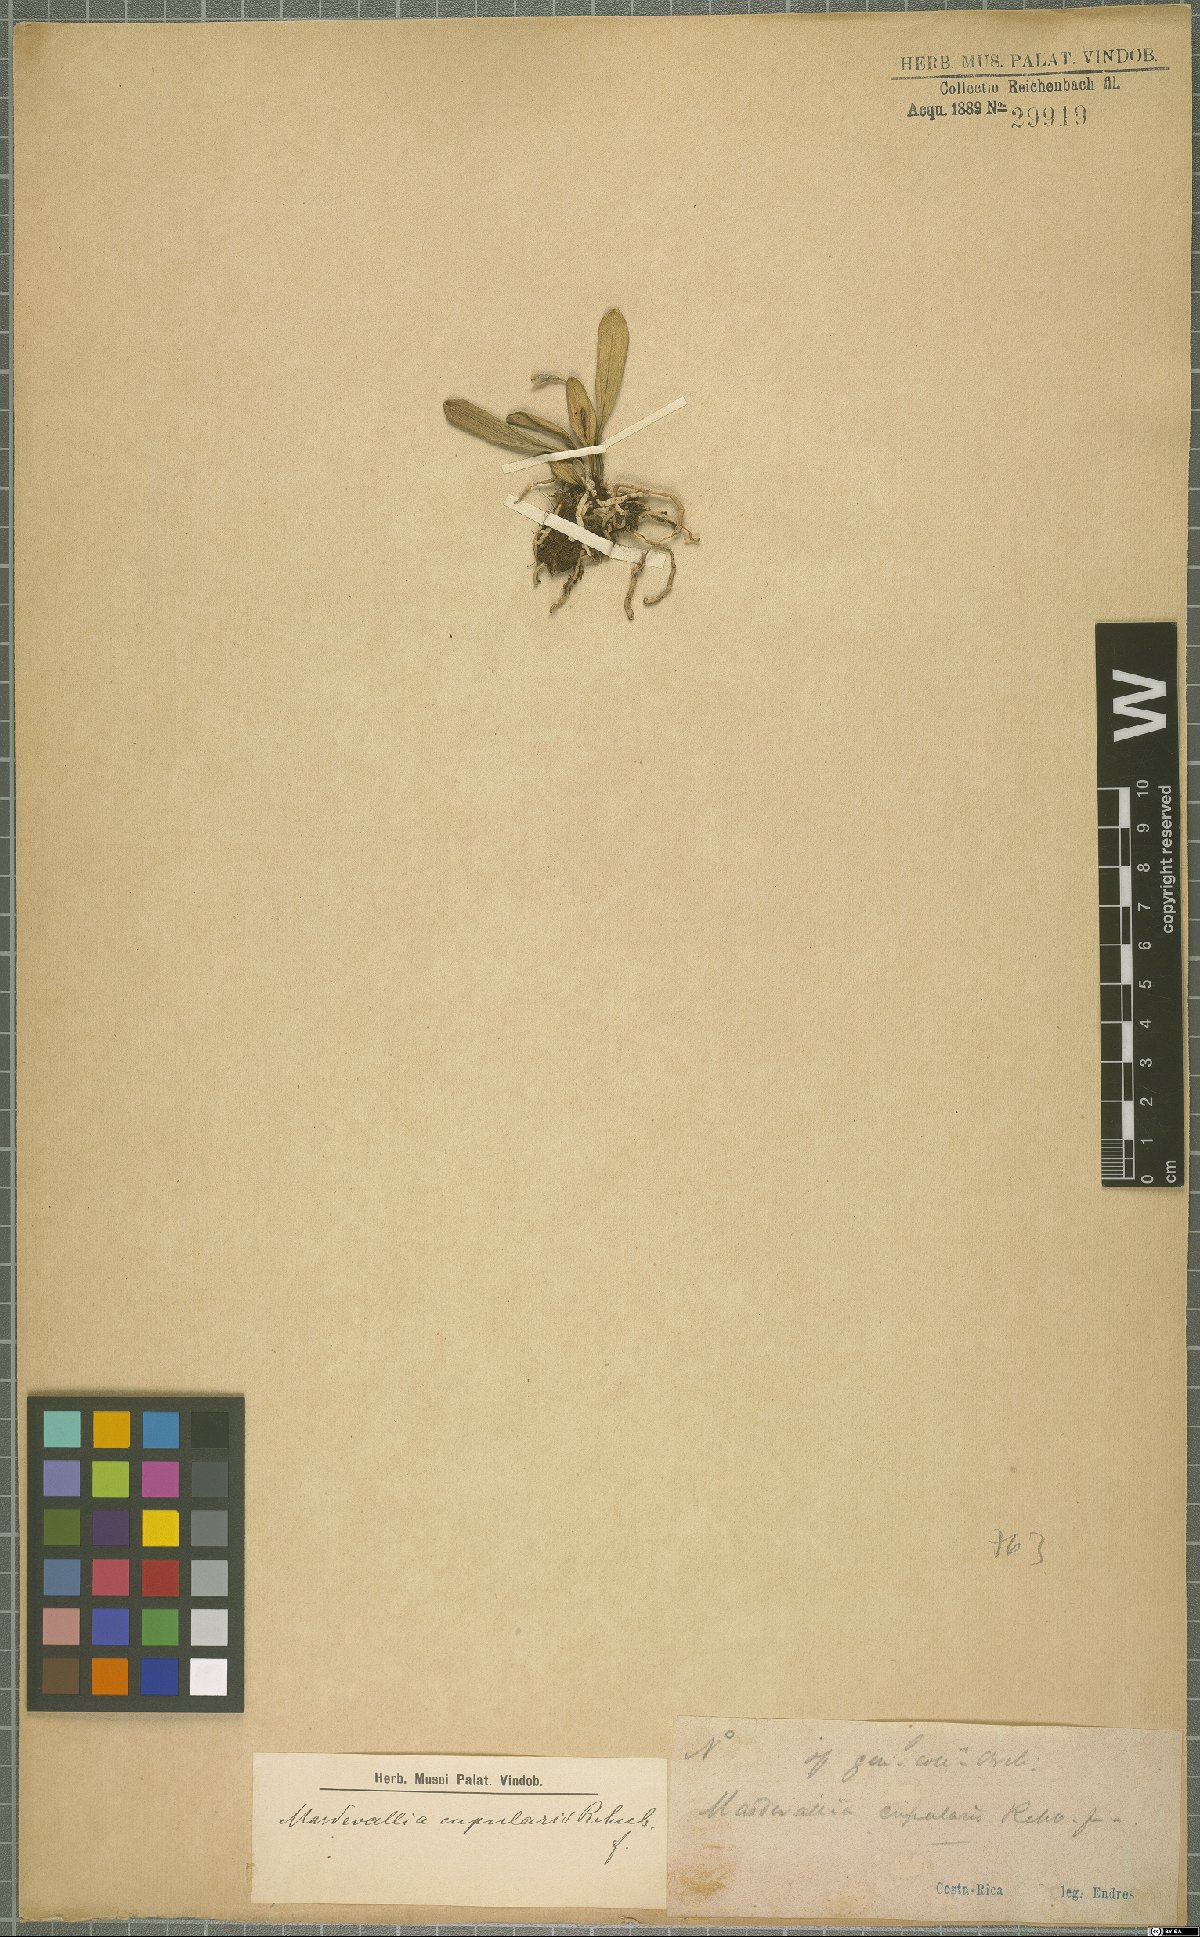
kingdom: Plantae
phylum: Tracheophyta
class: Liliopsida
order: Asparagales
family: Orchidaceae
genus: Masdevallia
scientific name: Masdevallia cupularis
